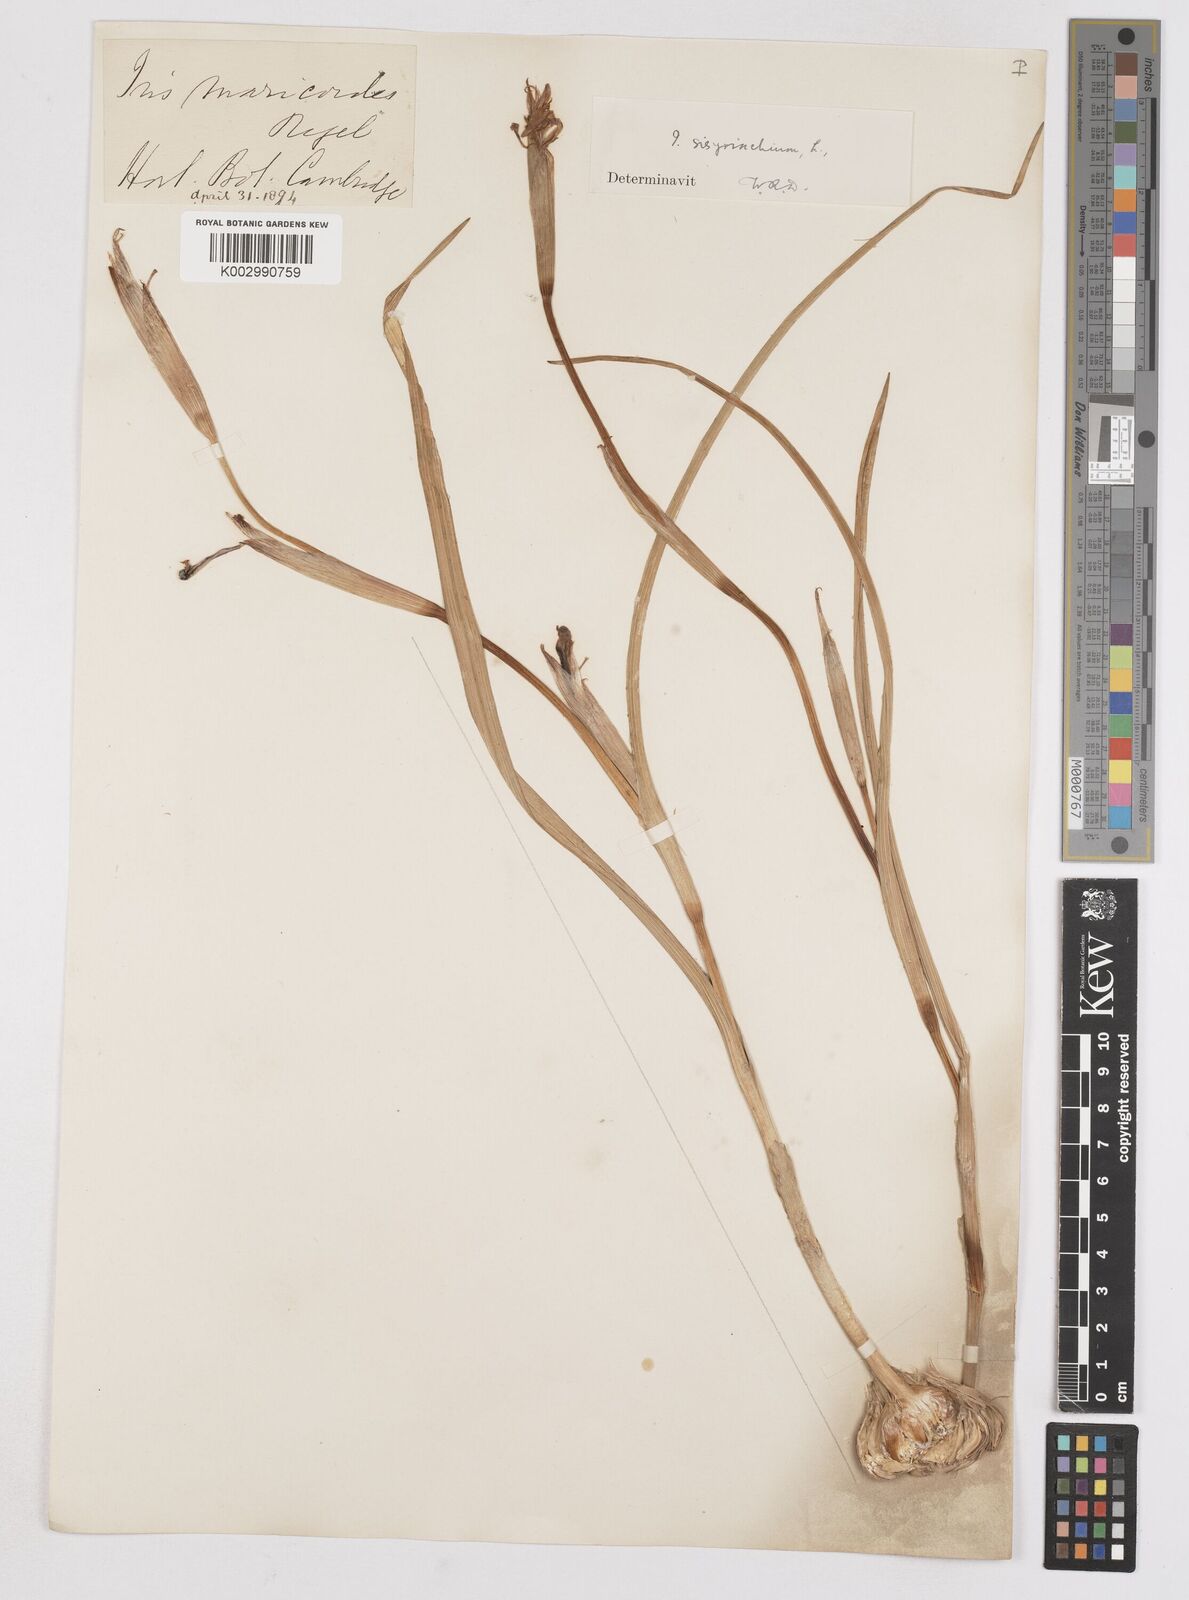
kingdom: Plantae
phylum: Tracheophyta
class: Liliopsida
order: Asparagales
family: Iridaceae
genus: Moraea
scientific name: Moraea sisyrinchium
